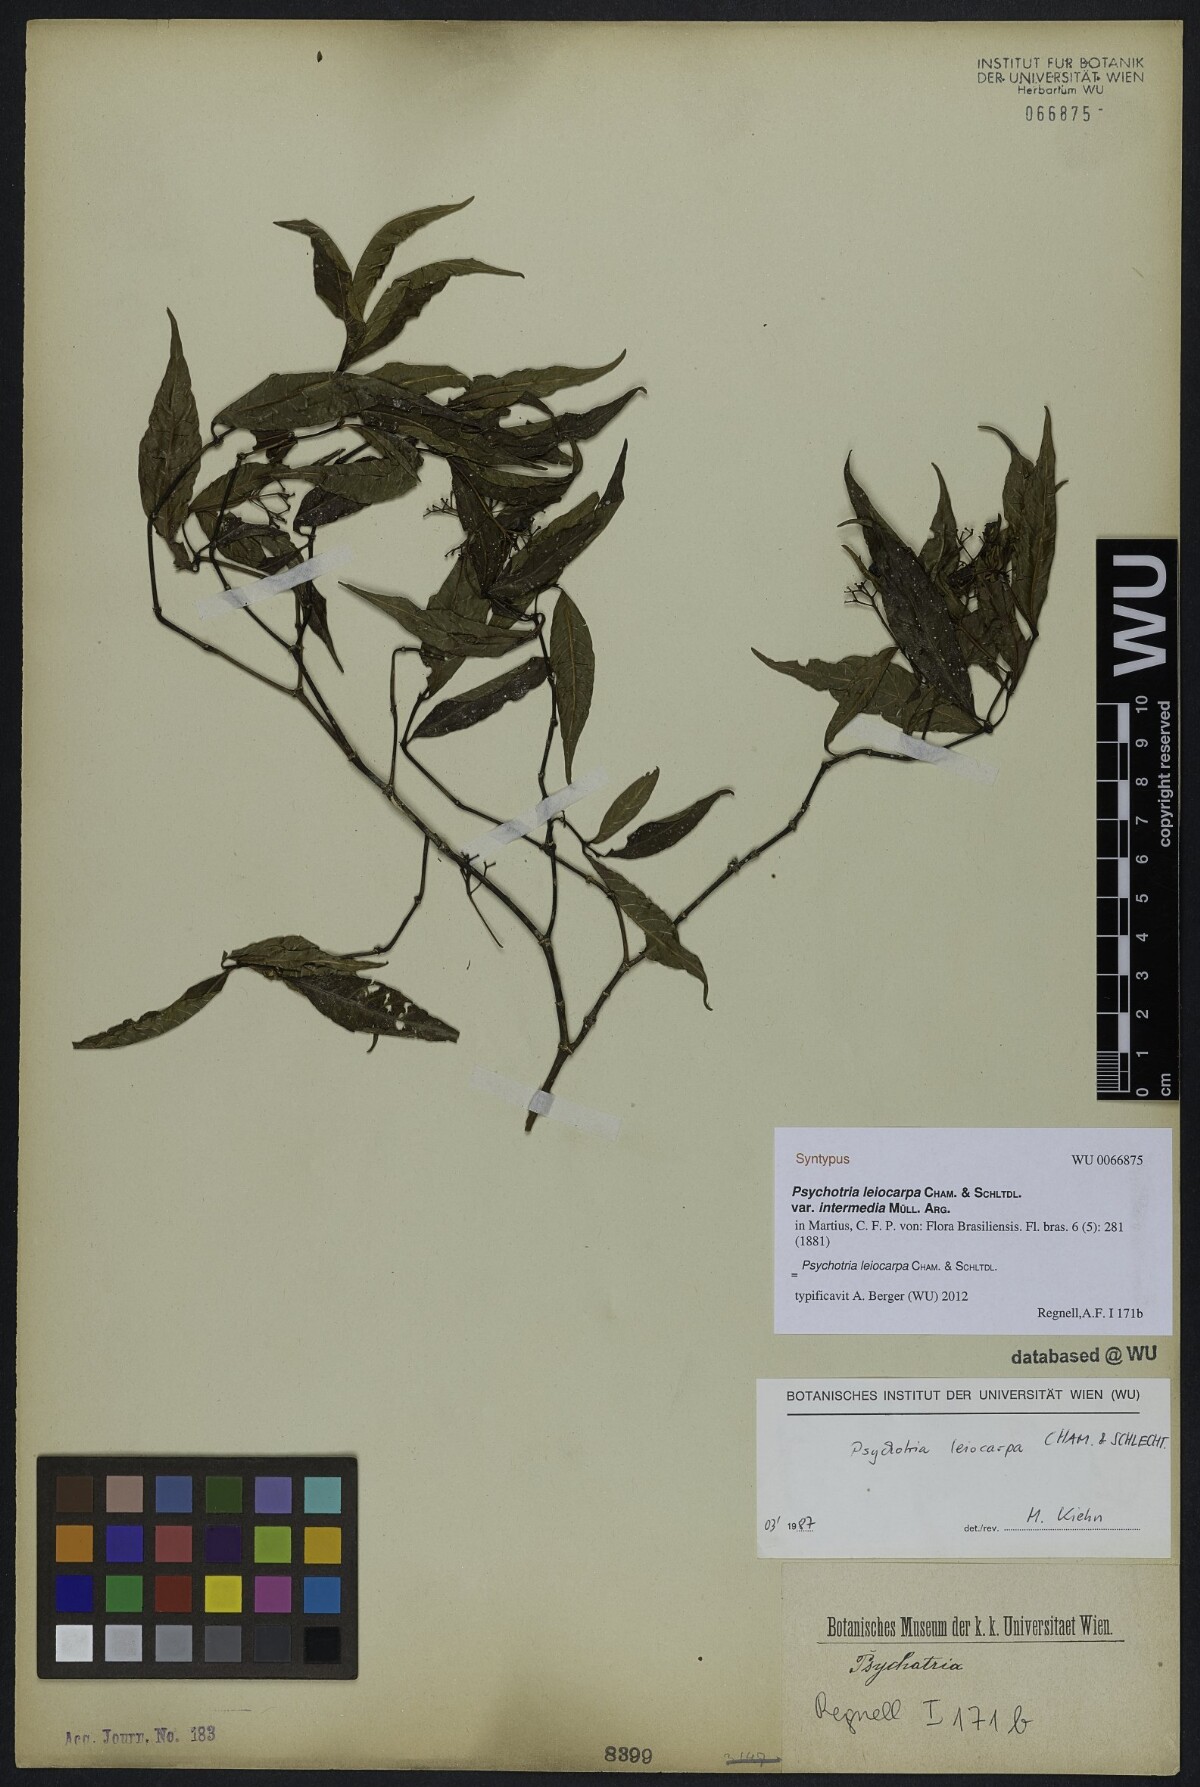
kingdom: Plantae
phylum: Tracheophyta
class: Magnoliopsida
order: Gentianales
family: Rubiaceae
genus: Psychotria
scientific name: Psychotria leiocarpa
